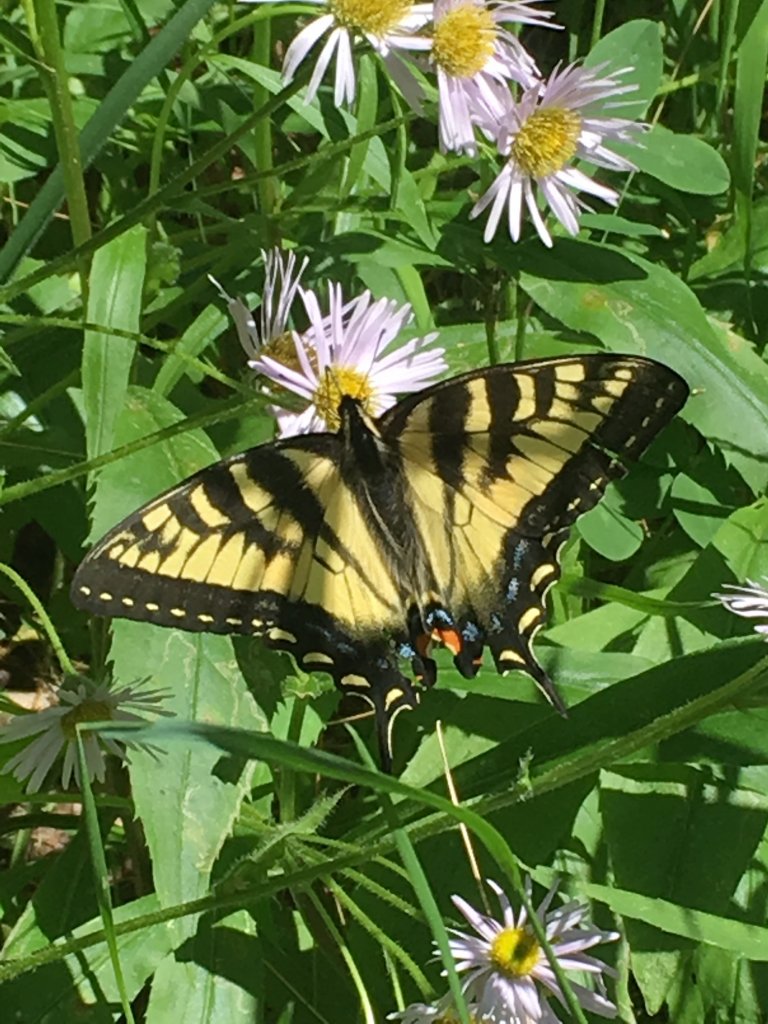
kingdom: Animalia
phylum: Arthropoda
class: Insecta
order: Lepidoptera
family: Papilionidae
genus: Papilio
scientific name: Papilio
